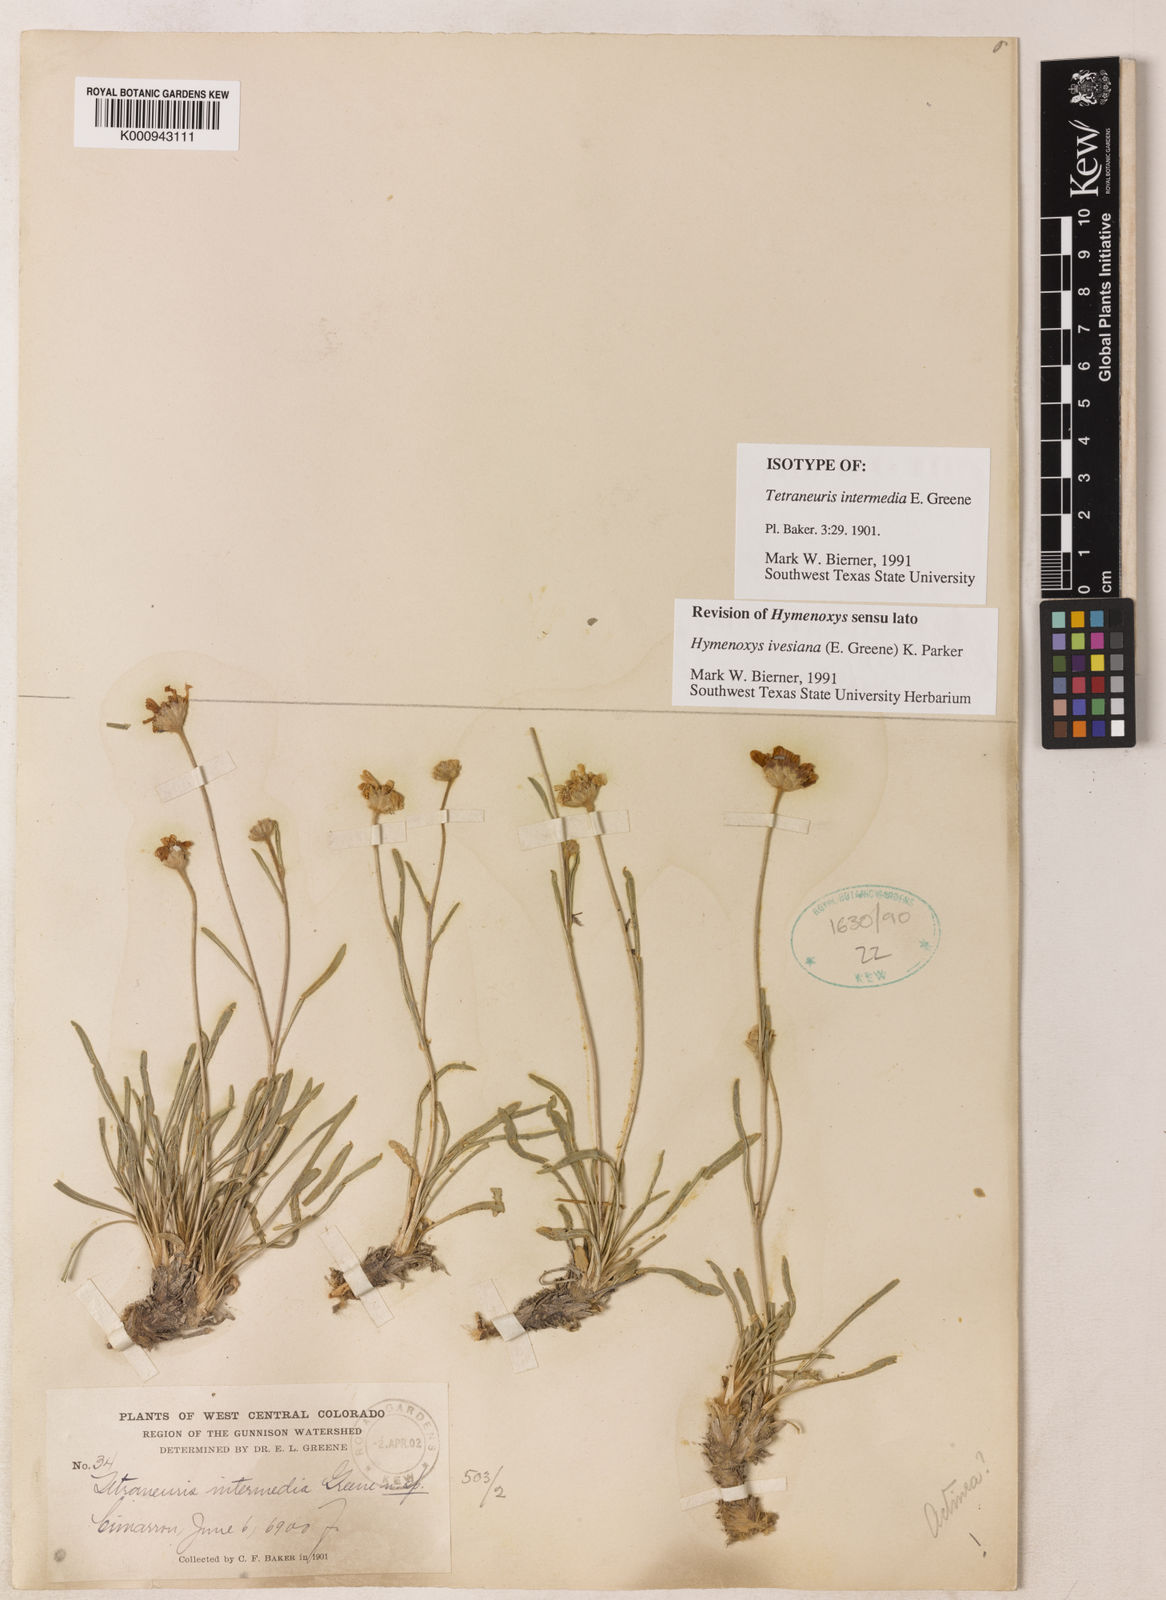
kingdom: Plantae
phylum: Tracheophyta
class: Magnoliopsida
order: Asterales
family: Asteraceae
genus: Tetraneuris
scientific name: Tetraneuris ivesiana
